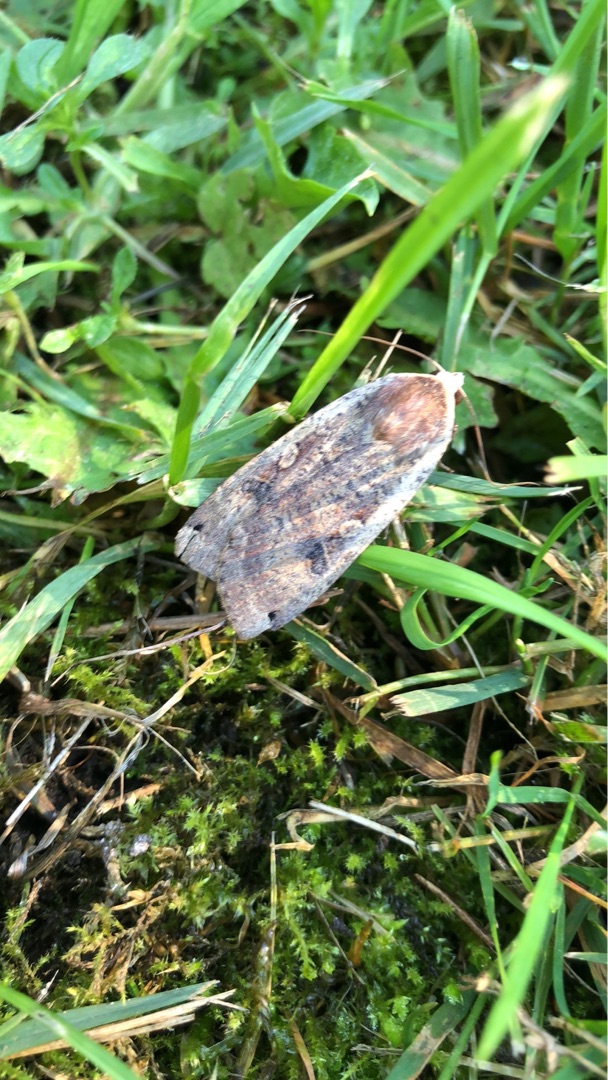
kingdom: Animalia
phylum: Arthropoda
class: Insecta
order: Lepidoptera
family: Noctuidae
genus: Noctua
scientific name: Noctua pronuba
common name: Stor smutugle
